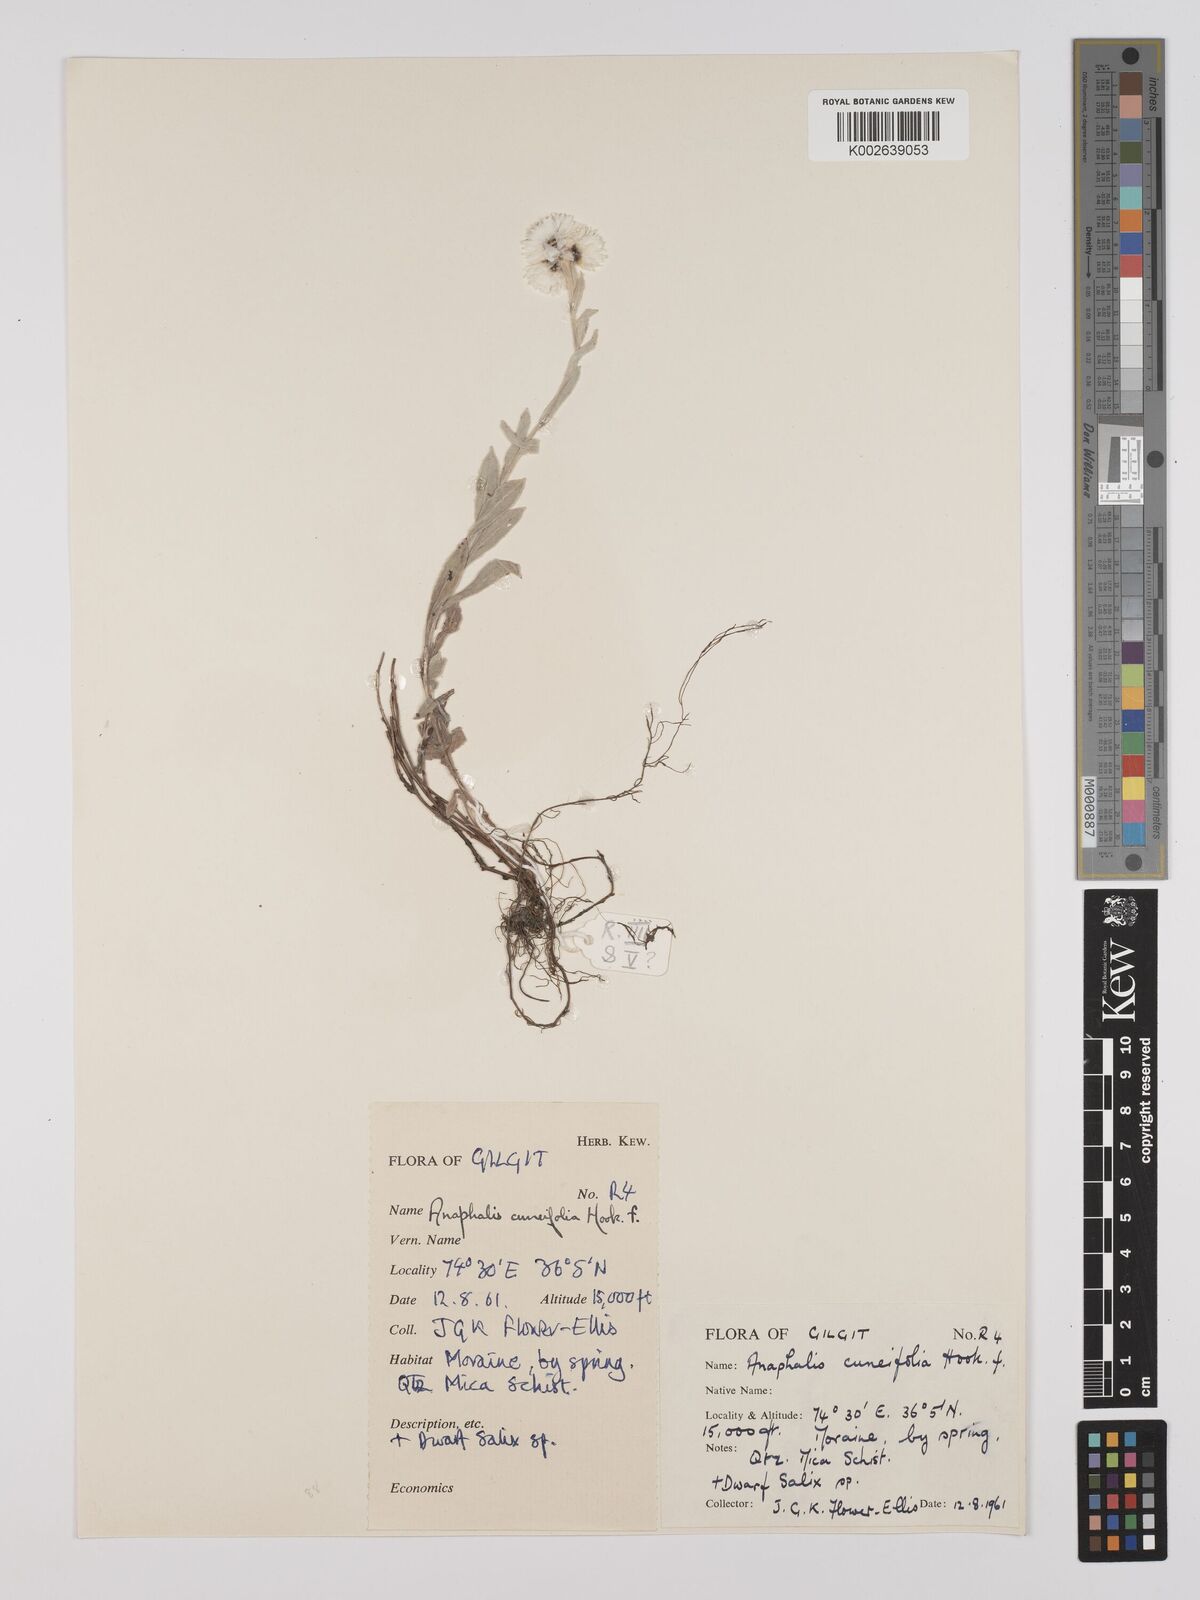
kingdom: Plantae
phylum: Tracheophyta
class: Magnoliopsida
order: Asterales
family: Asteraceae
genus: Anaphalis
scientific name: Anaphalis nepalensis
